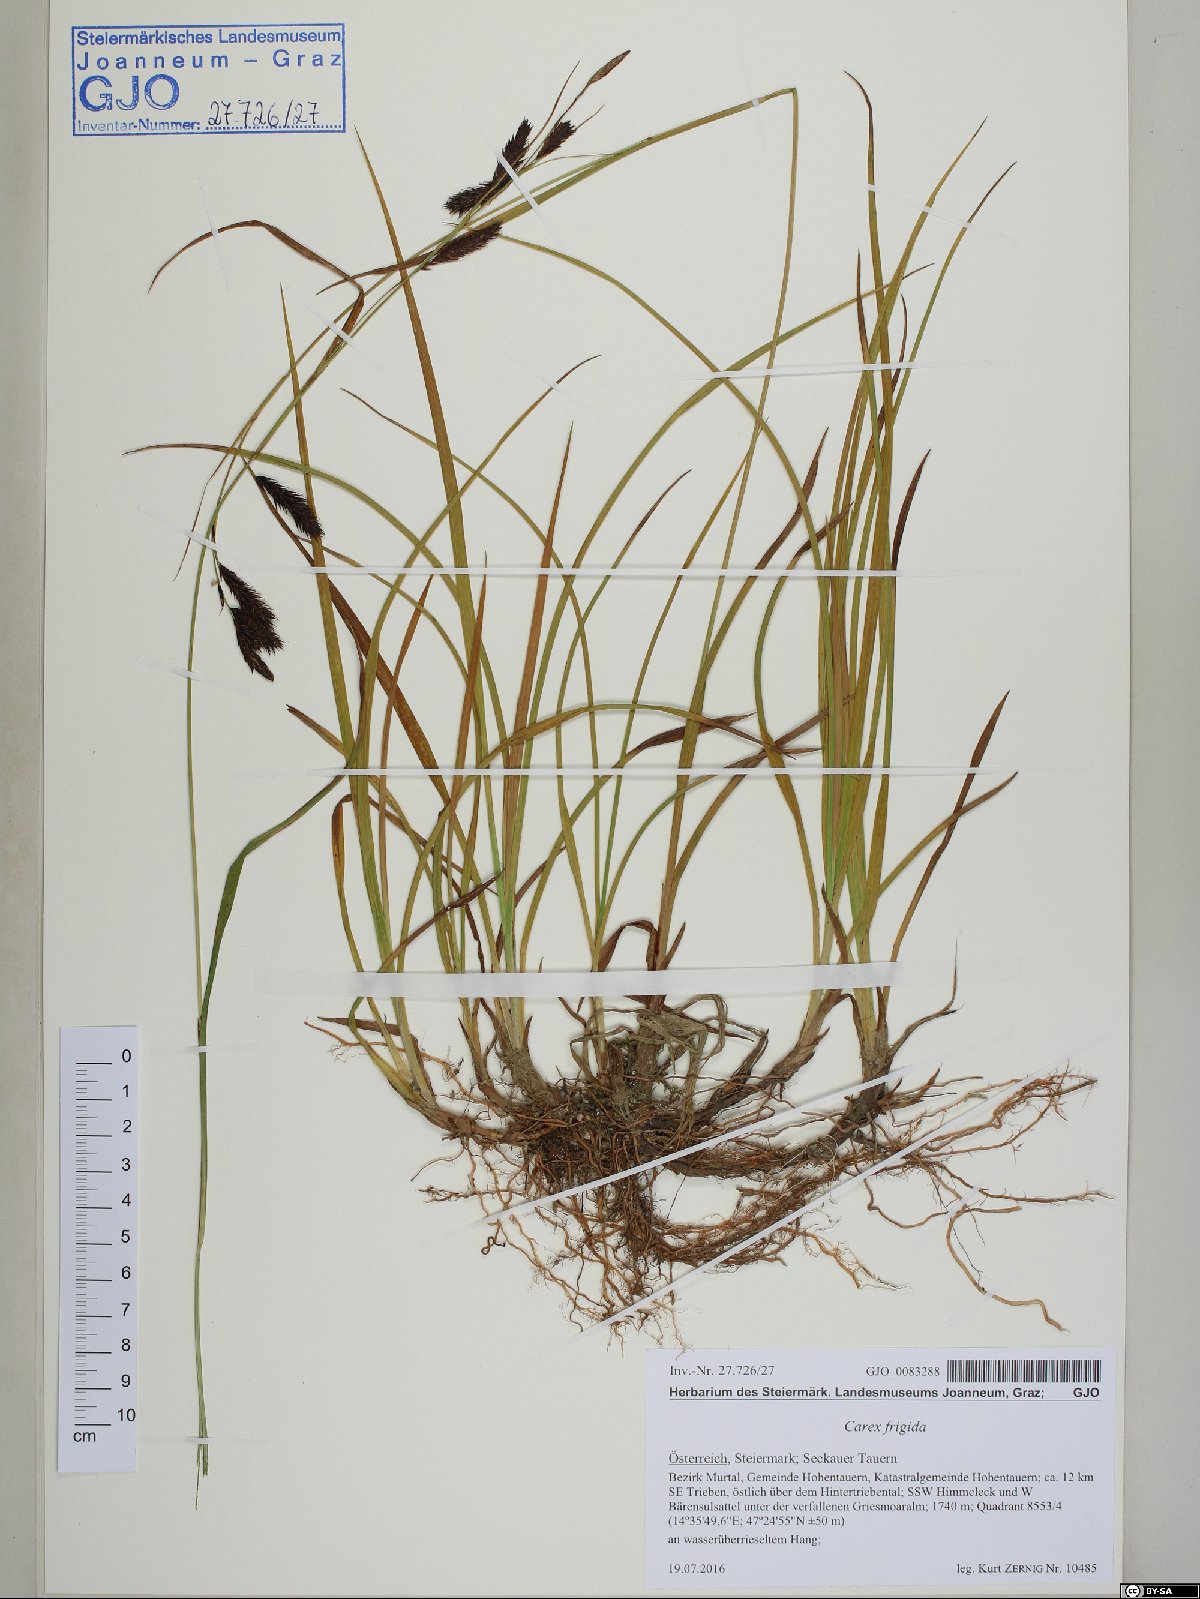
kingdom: Plantae
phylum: Tracheophyta
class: Liliopsida
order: Poales
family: Cyperaceae
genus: Carex
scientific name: Carex frigida
